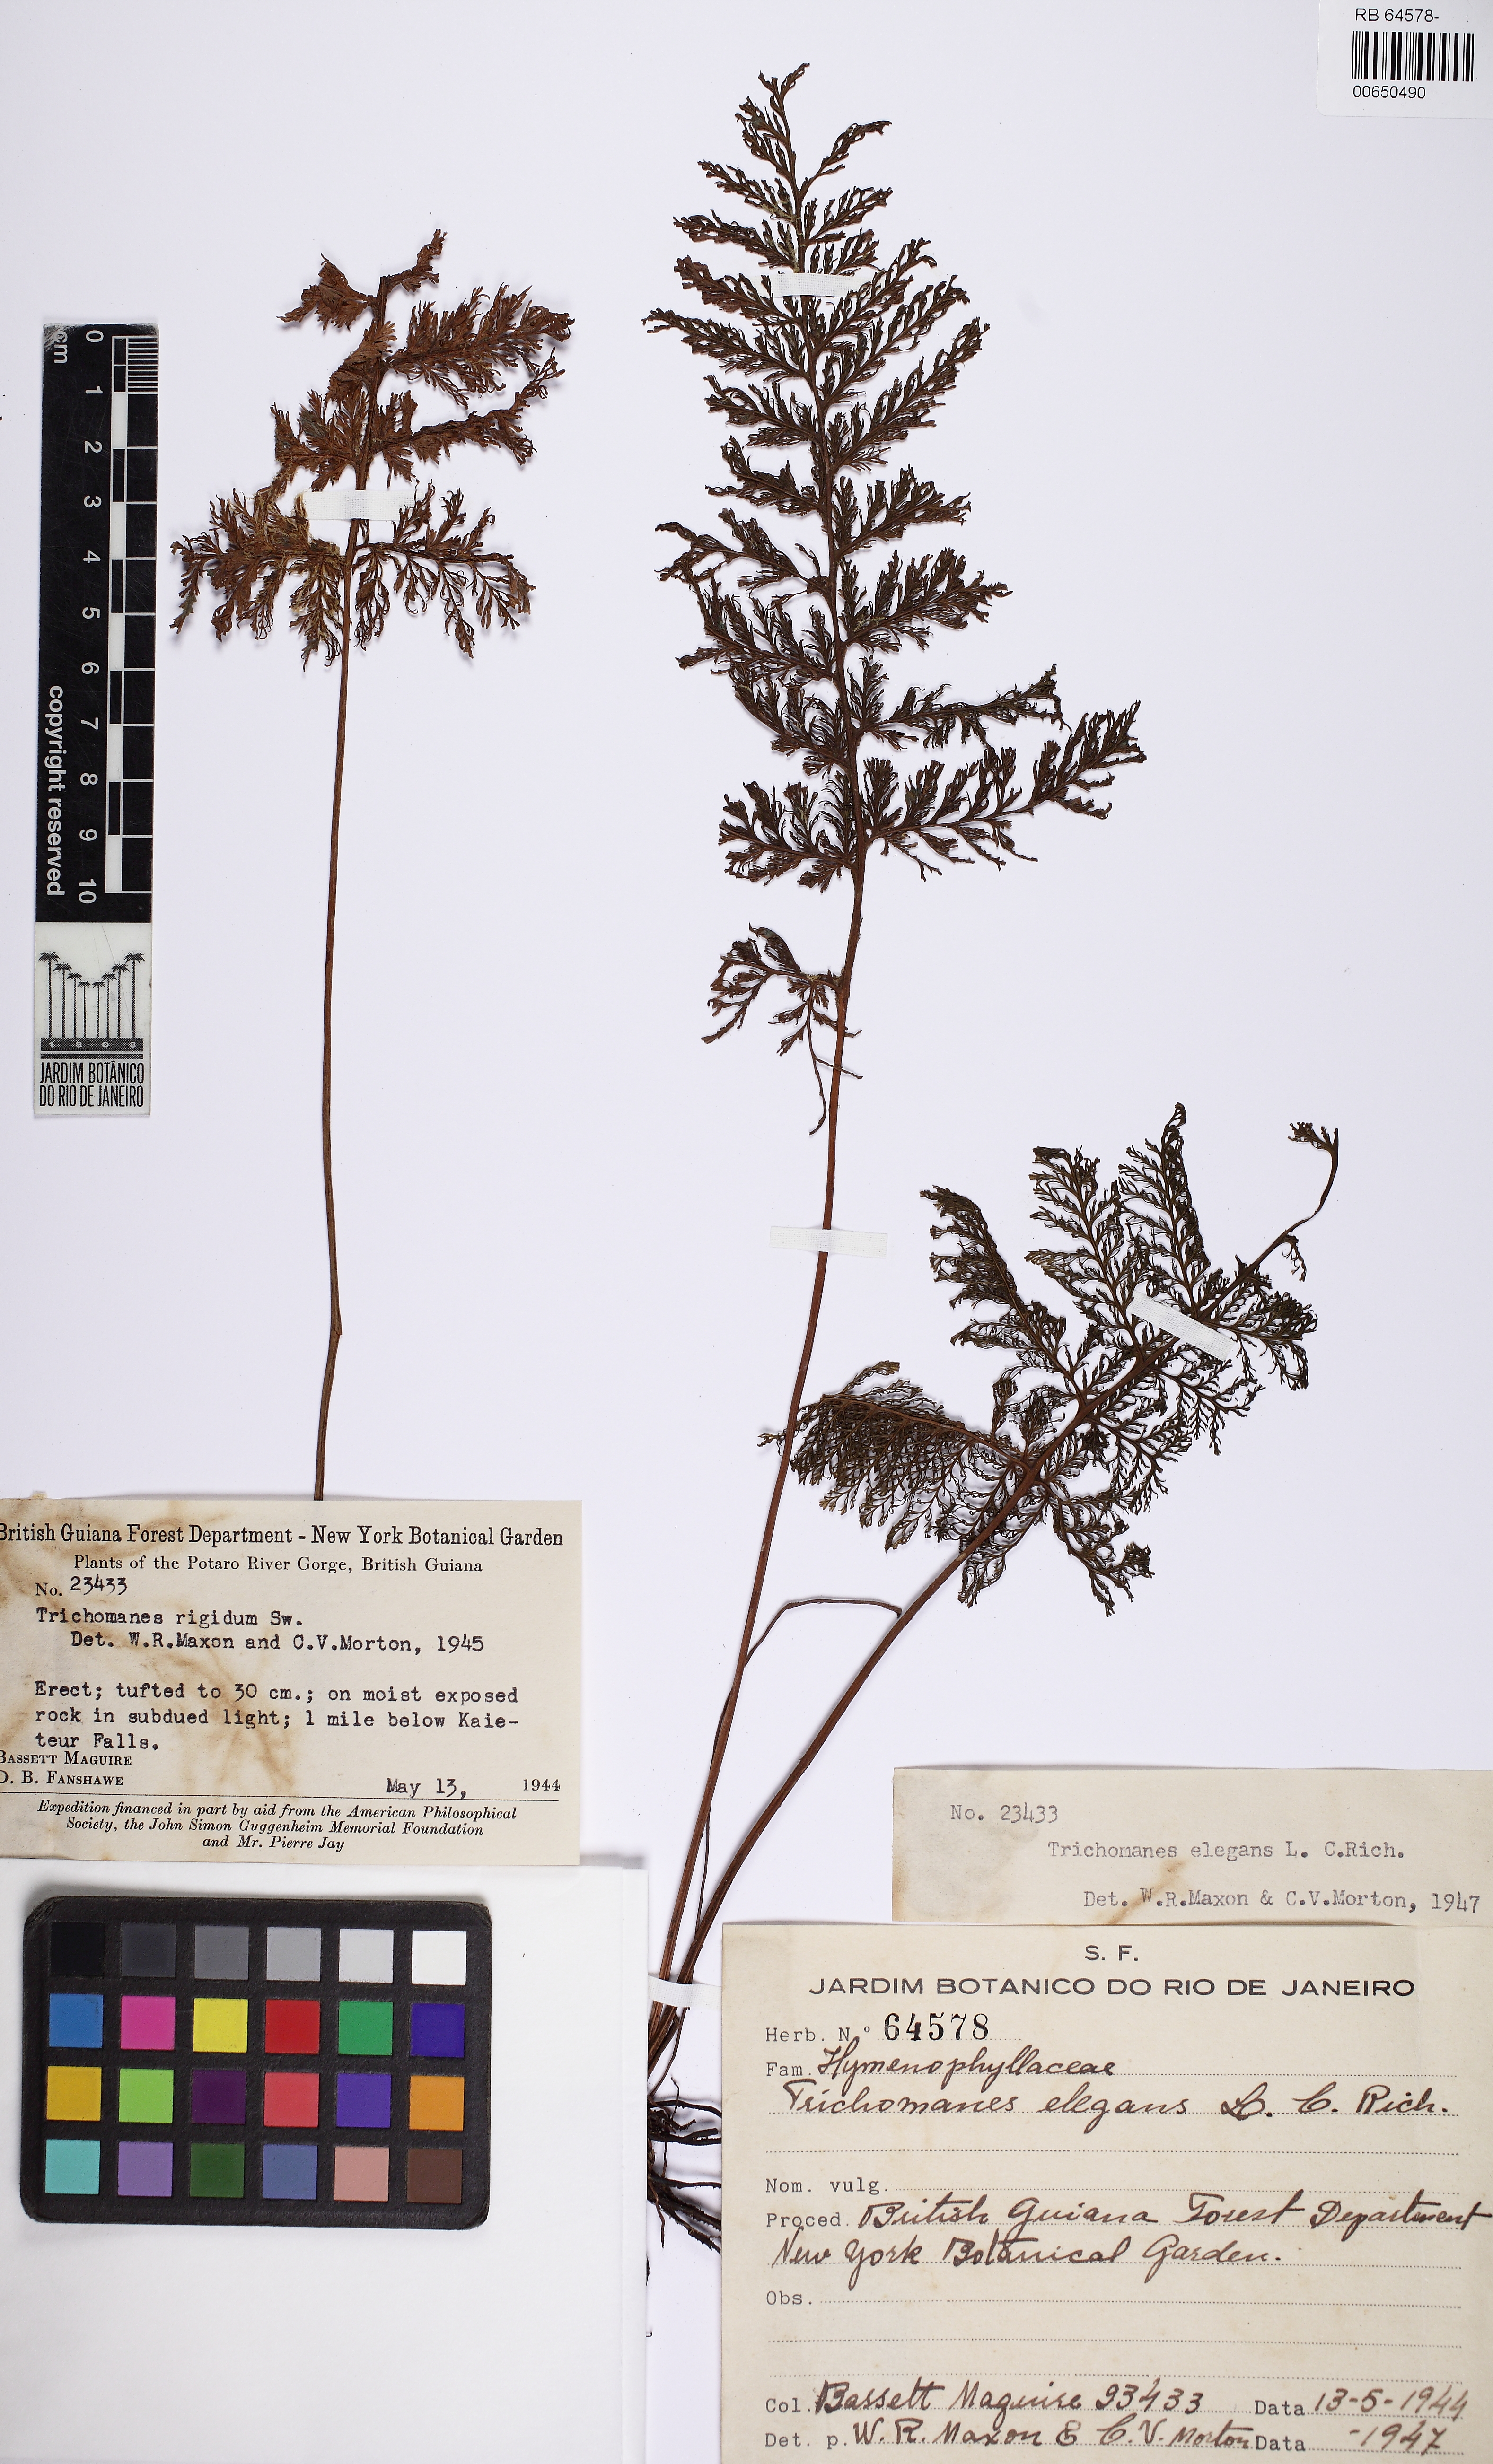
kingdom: Plantae
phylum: Tracheophyta
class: Polypodiopsida
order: Hymenophyllales
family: Hymenophyllaceae
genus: Trichomanes
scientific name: Trichomanes elegans
